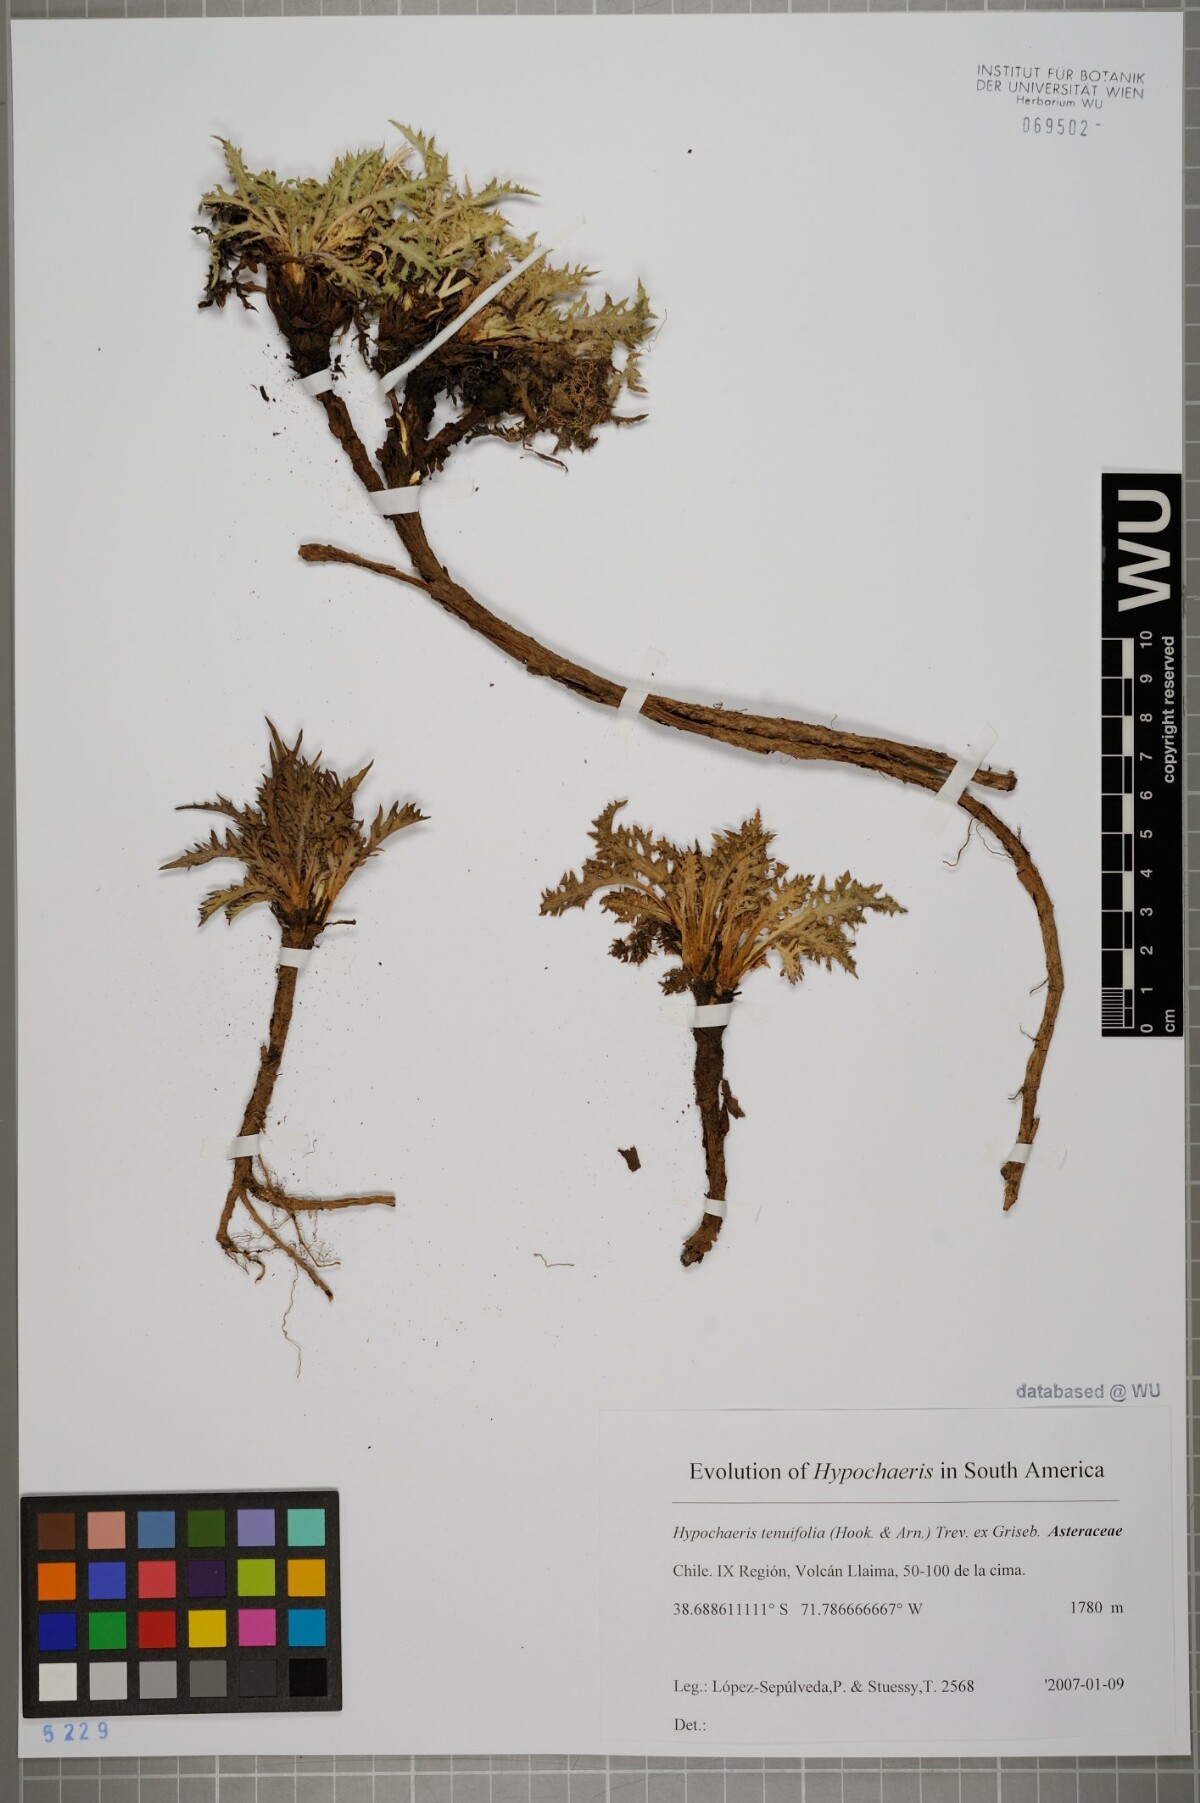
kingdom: Plantae
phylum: Tracheophyta
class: Magnoliopsida
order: Asterales
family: Asteraceae
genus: Hypochaeris
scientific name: Hypochaeris tenuifolia
